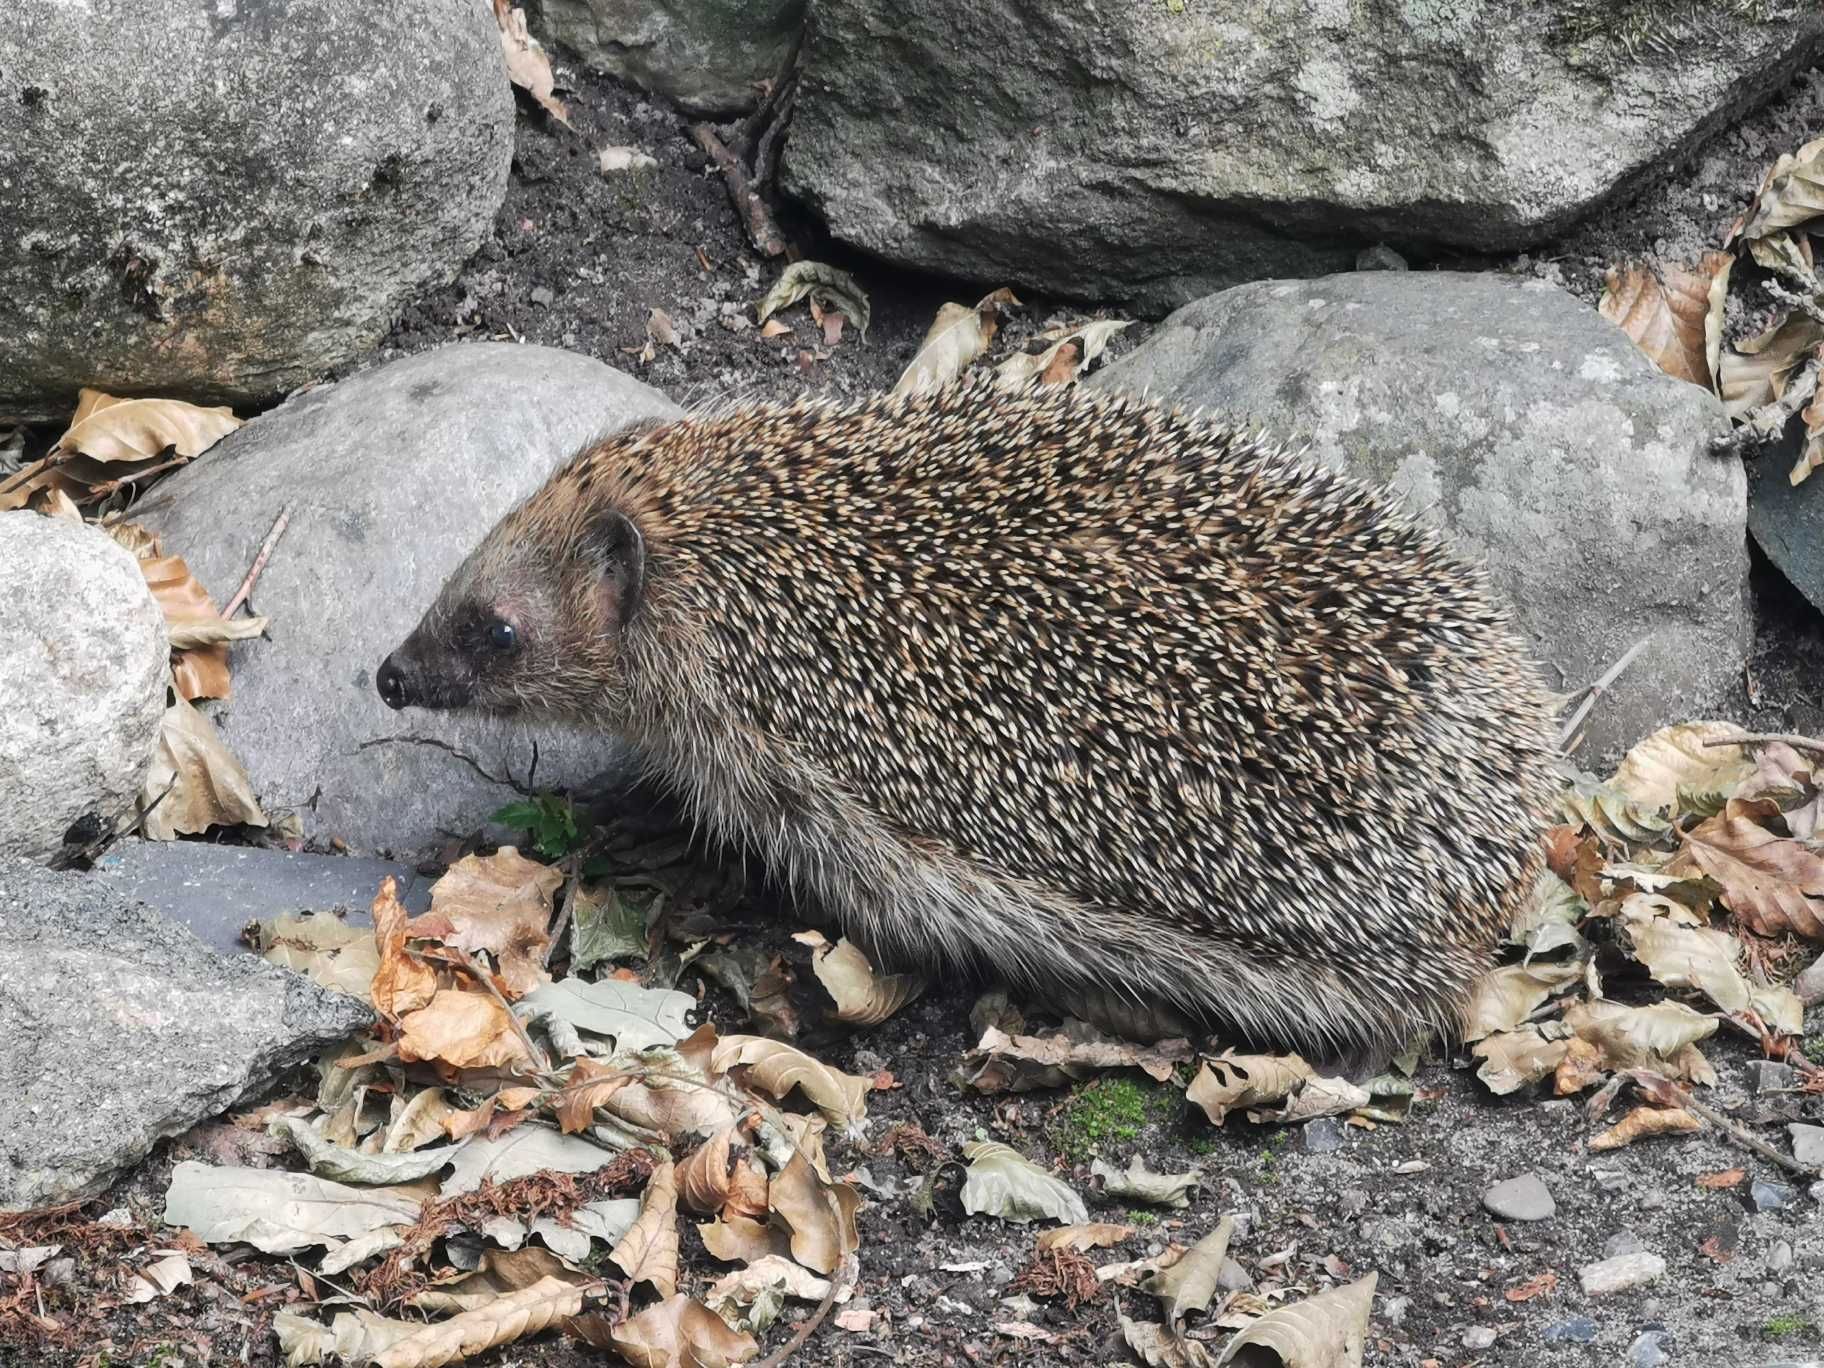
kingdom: Animalia
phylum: Chordata
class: Mammalia
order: Erinaceomorpha
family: Erinaceidae
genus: Erinaceus
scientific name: Erinaceus europaeus
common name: Pindsvin
